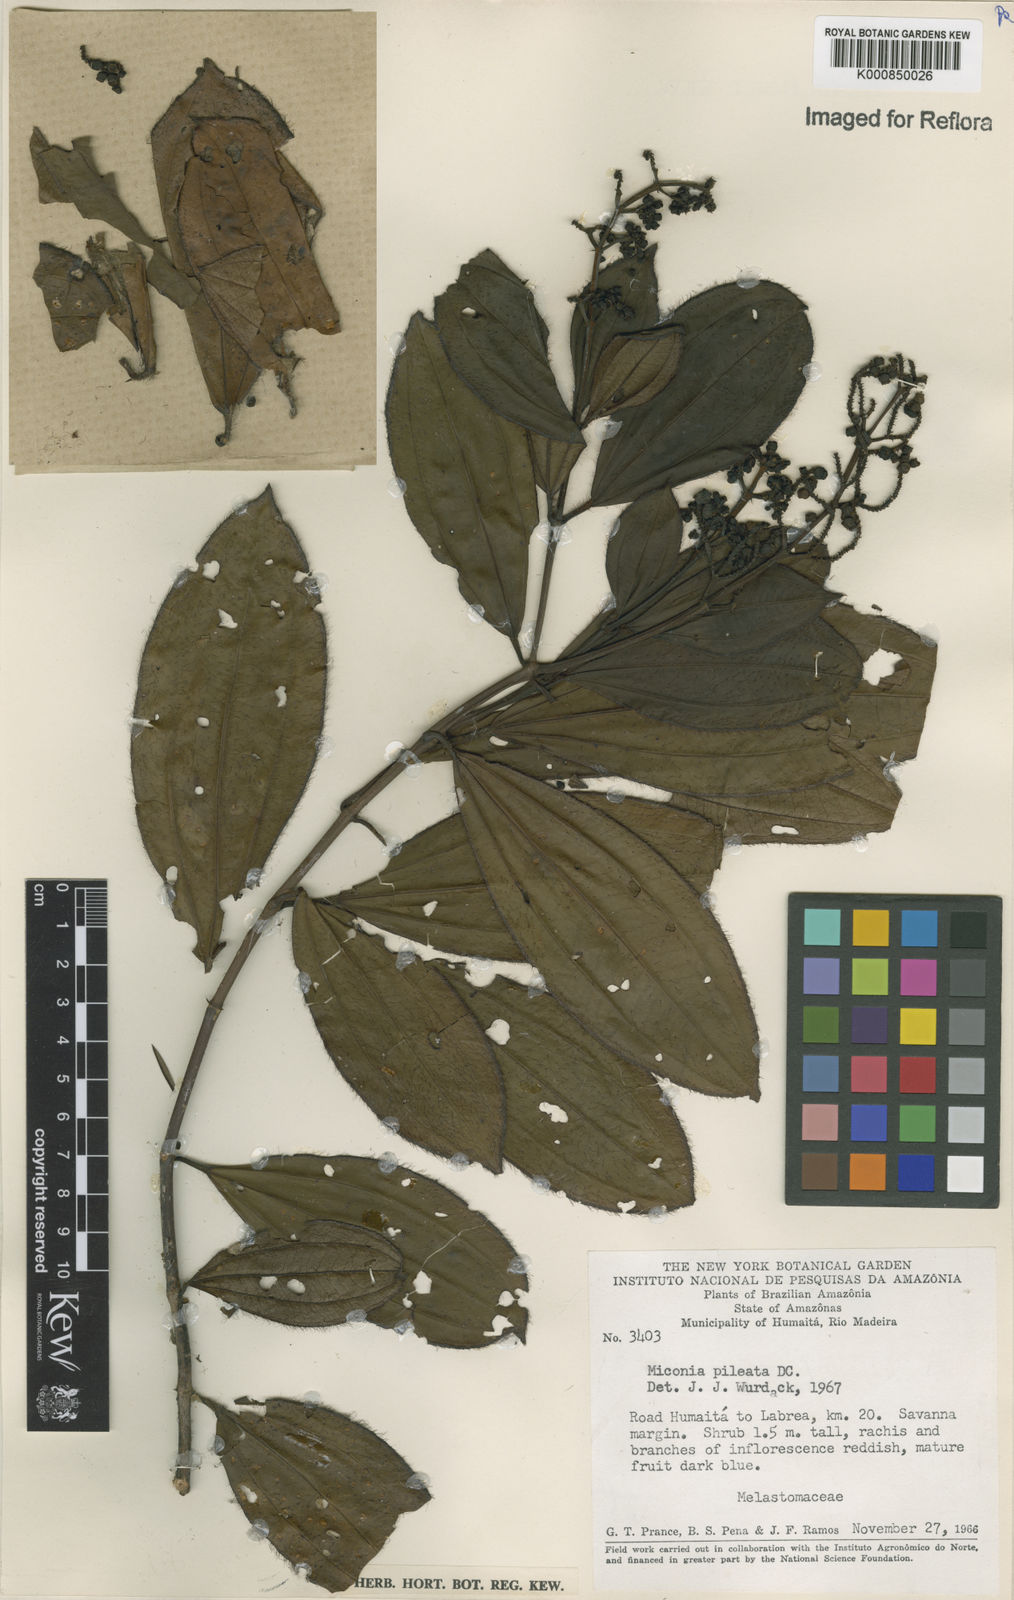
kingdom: Plantae
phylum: Tracheophyta
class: Magnoliopsida
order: Myrtales
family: Melastomataceae
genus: Miconia
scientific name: Miconia pileata
